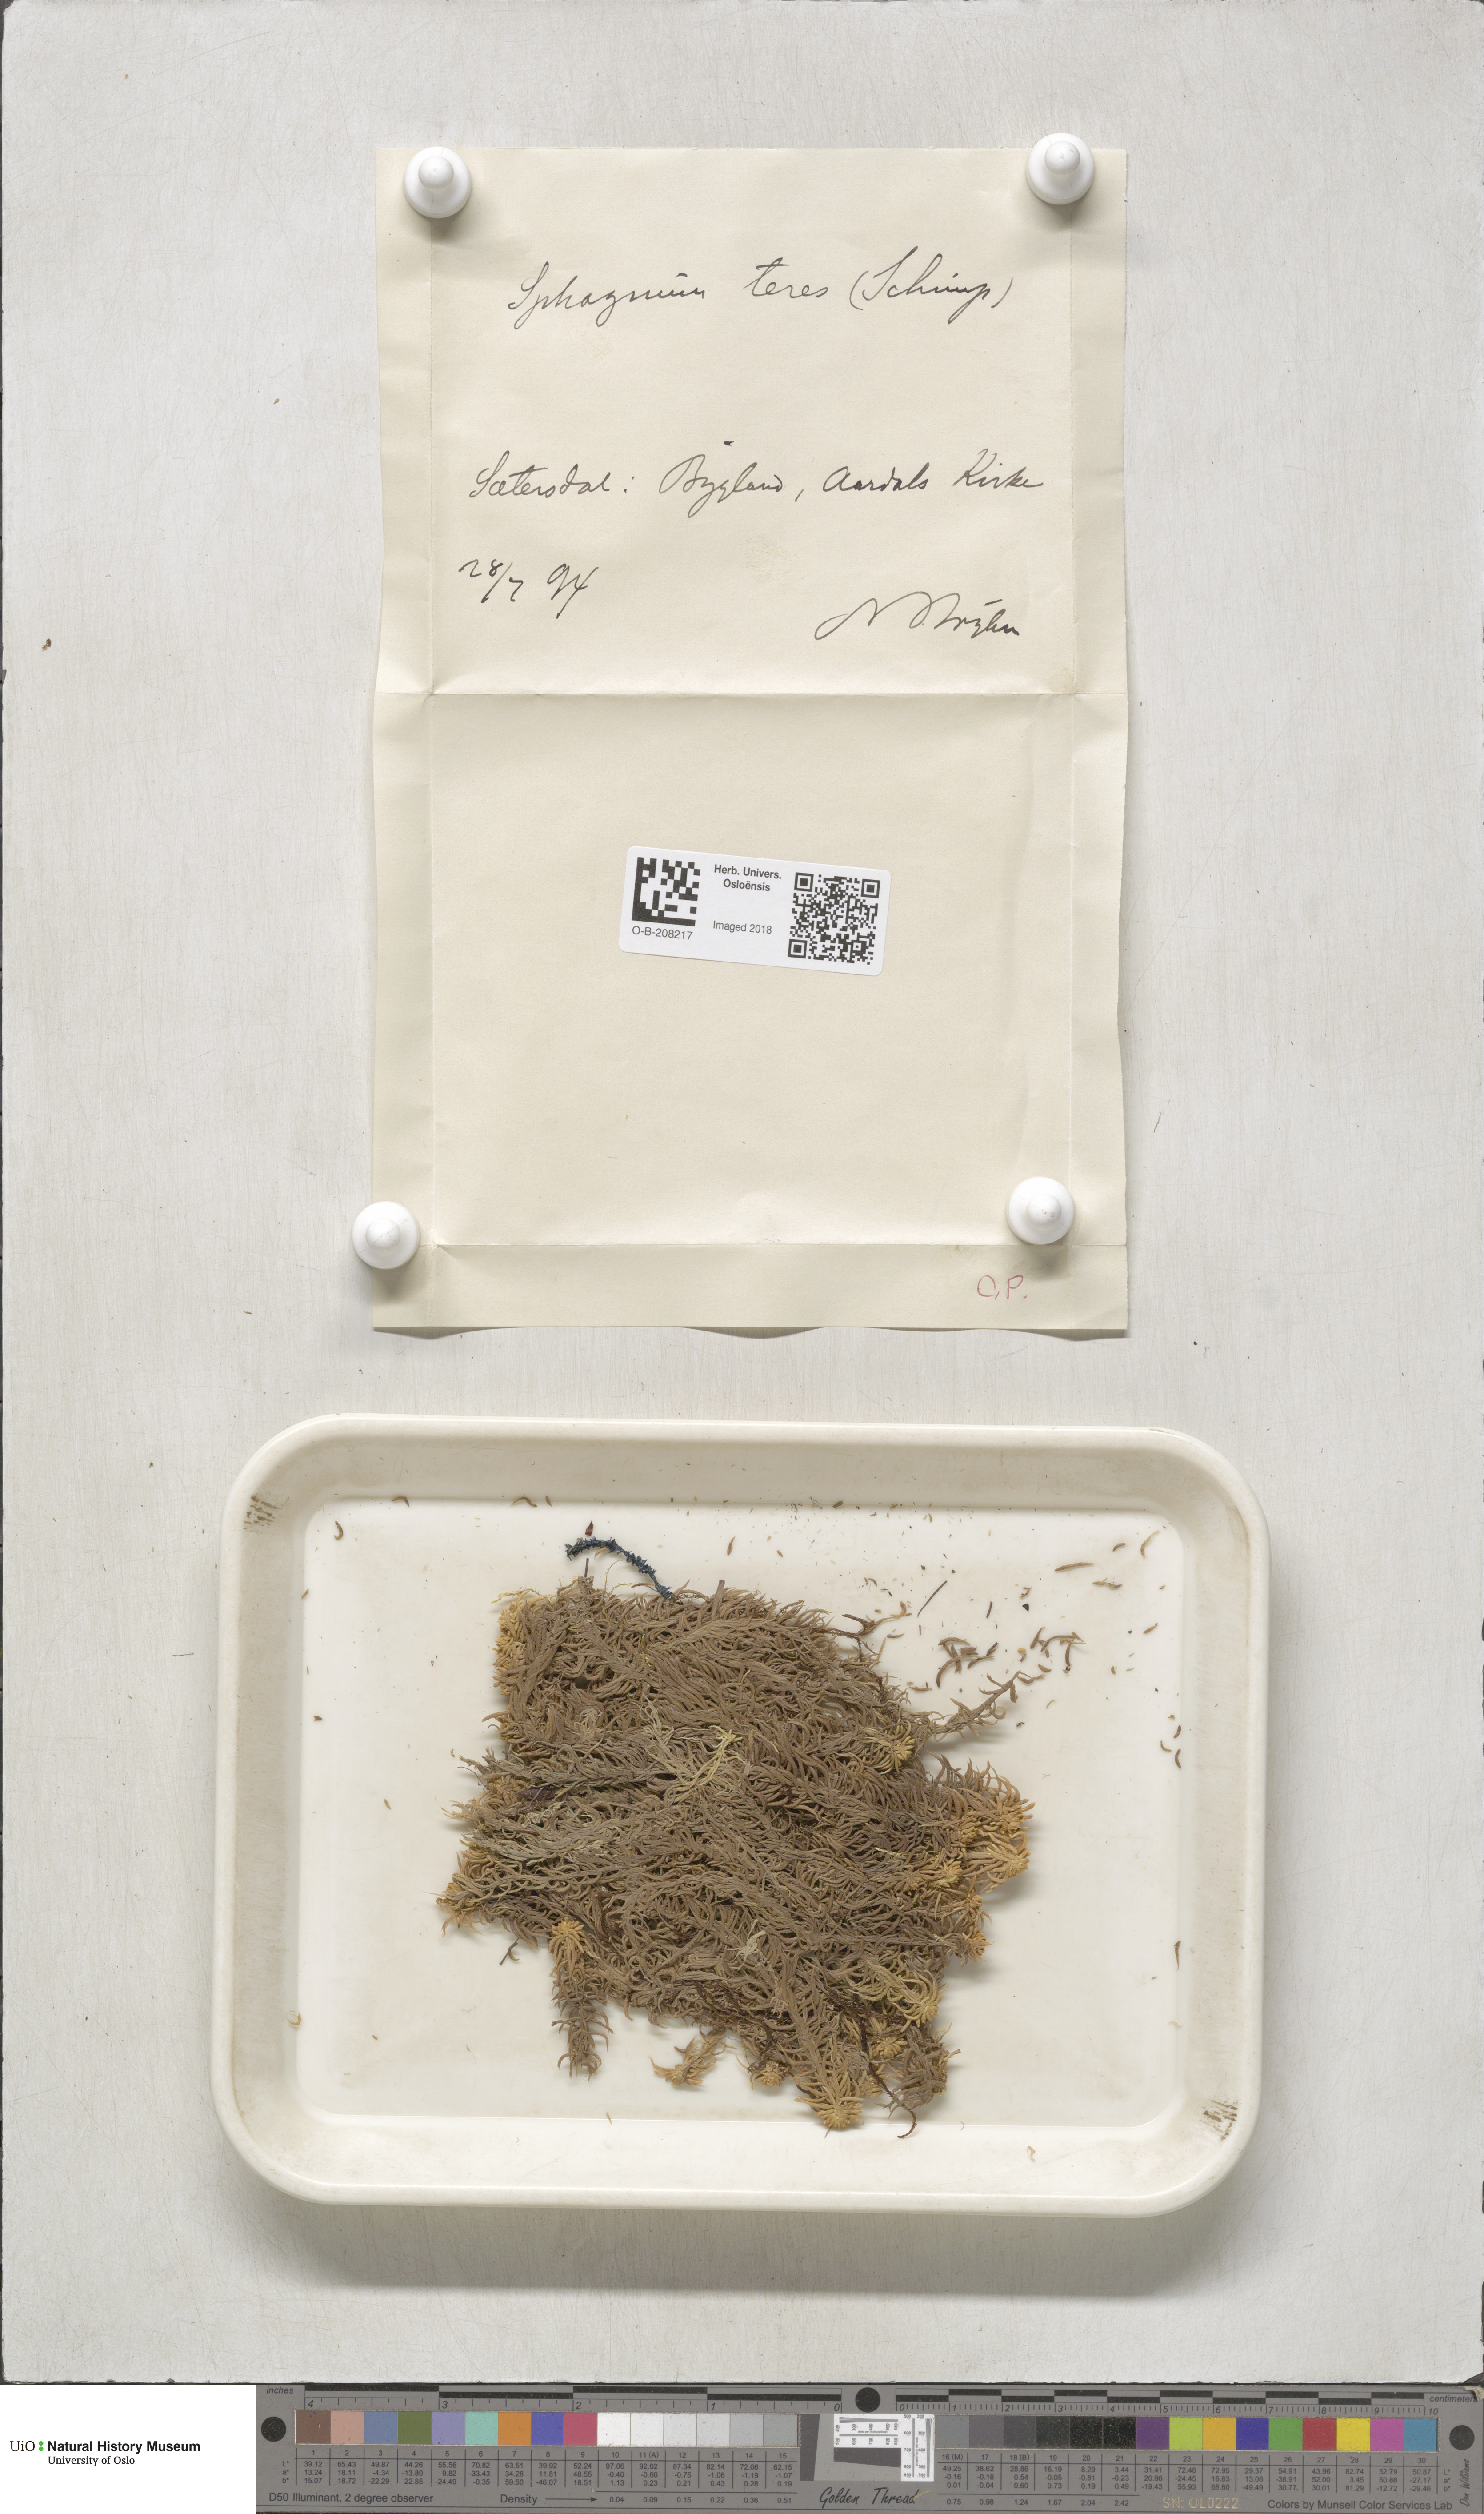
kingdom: Plantae
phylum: Bryophyta
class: Sphagnopsida
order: Sphagnales
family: Sphagnaceae
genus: Sphagnum
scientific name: Sphagnum teres
